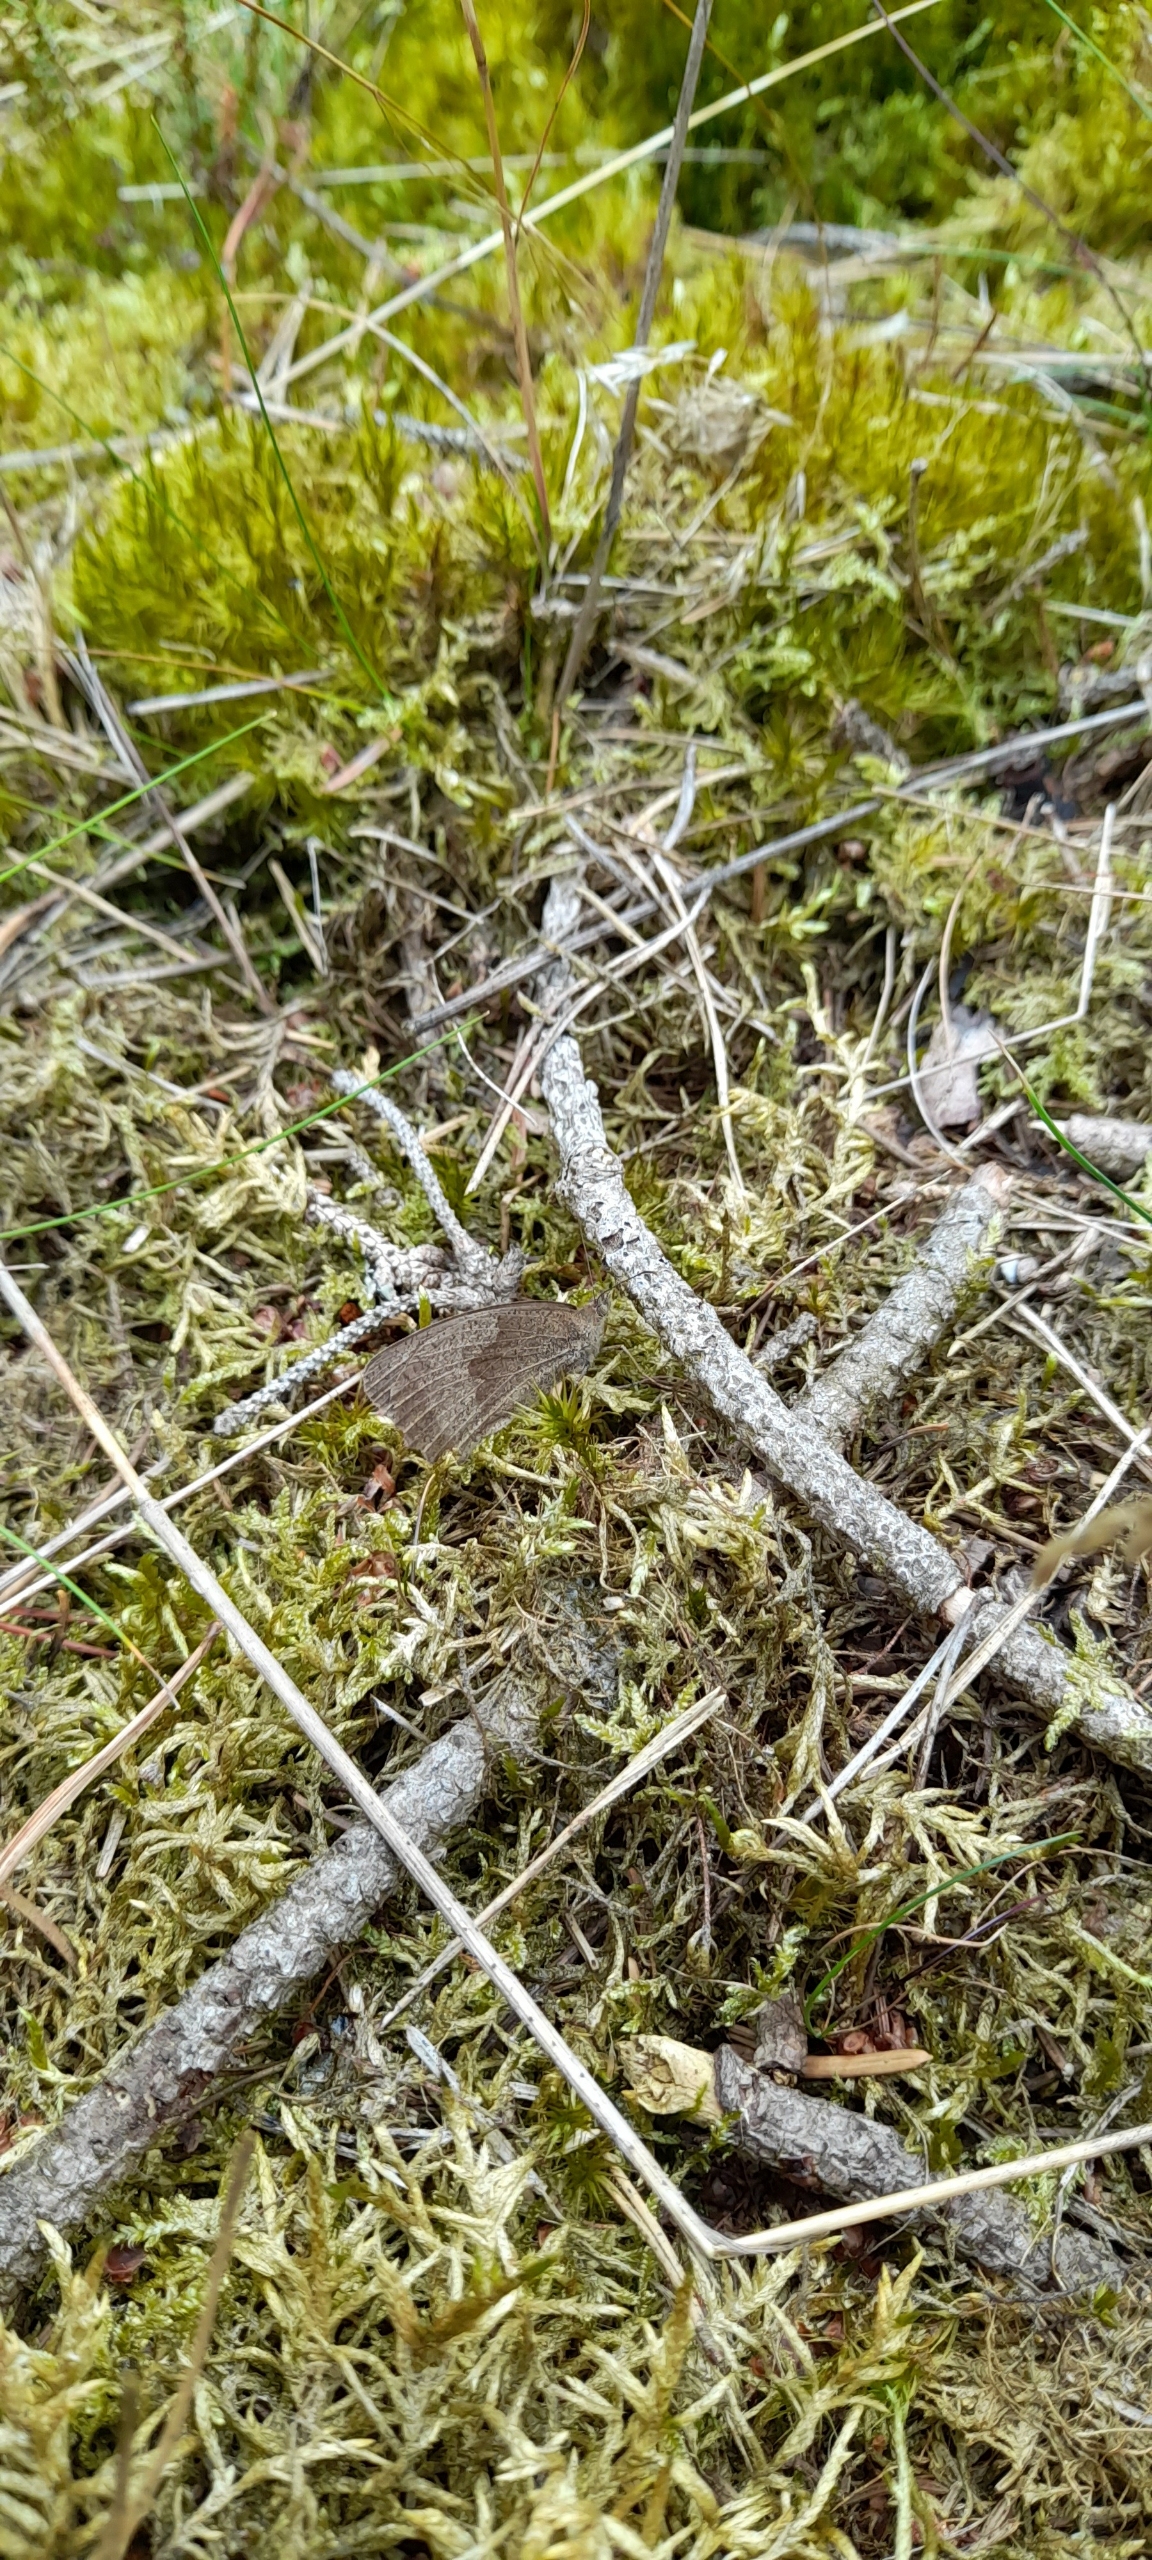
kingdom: Animalia
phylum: Arthropoda
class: Insecta
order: Lepidoptera
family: Nymphalidae
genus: Maniola
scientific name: Maniola jurtina
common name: Græsrandøje
